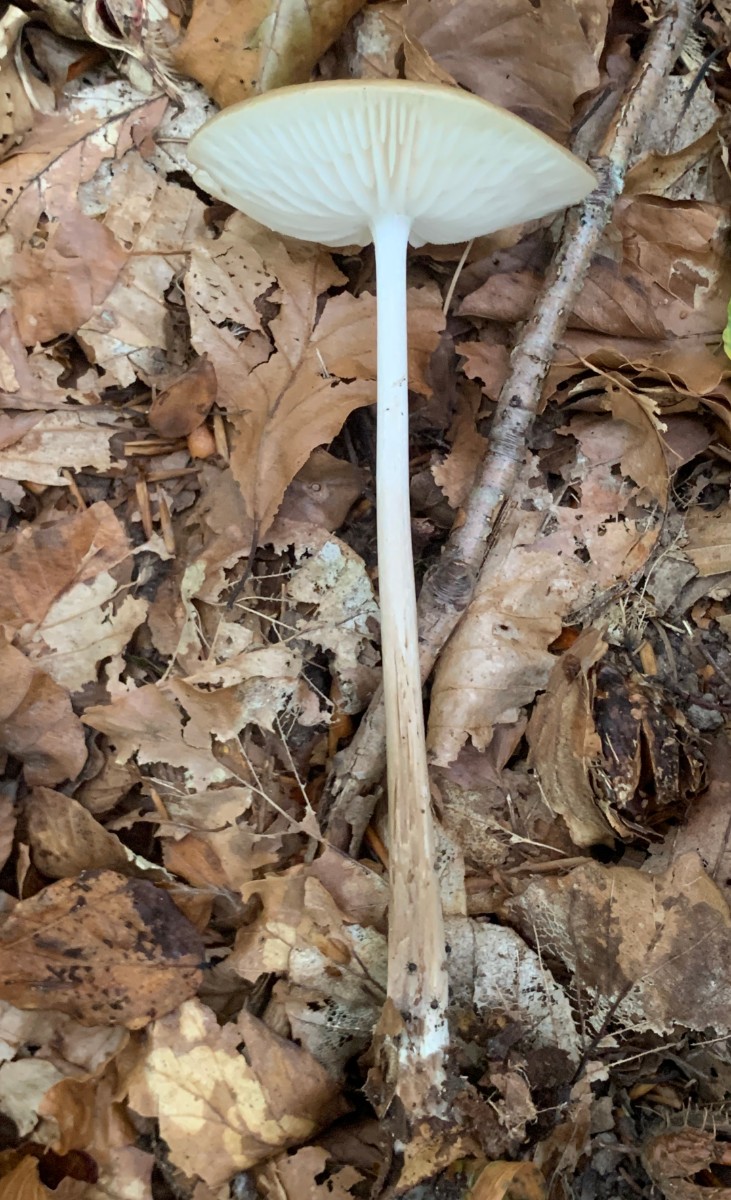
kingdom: Fungi
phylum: Basidiomycota
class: Agaricomycetes
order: Agaricales
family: Physalacriaceae
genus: Hymenopellis
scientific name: Hymenopellis radicata
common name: almindelig pælerodshat
